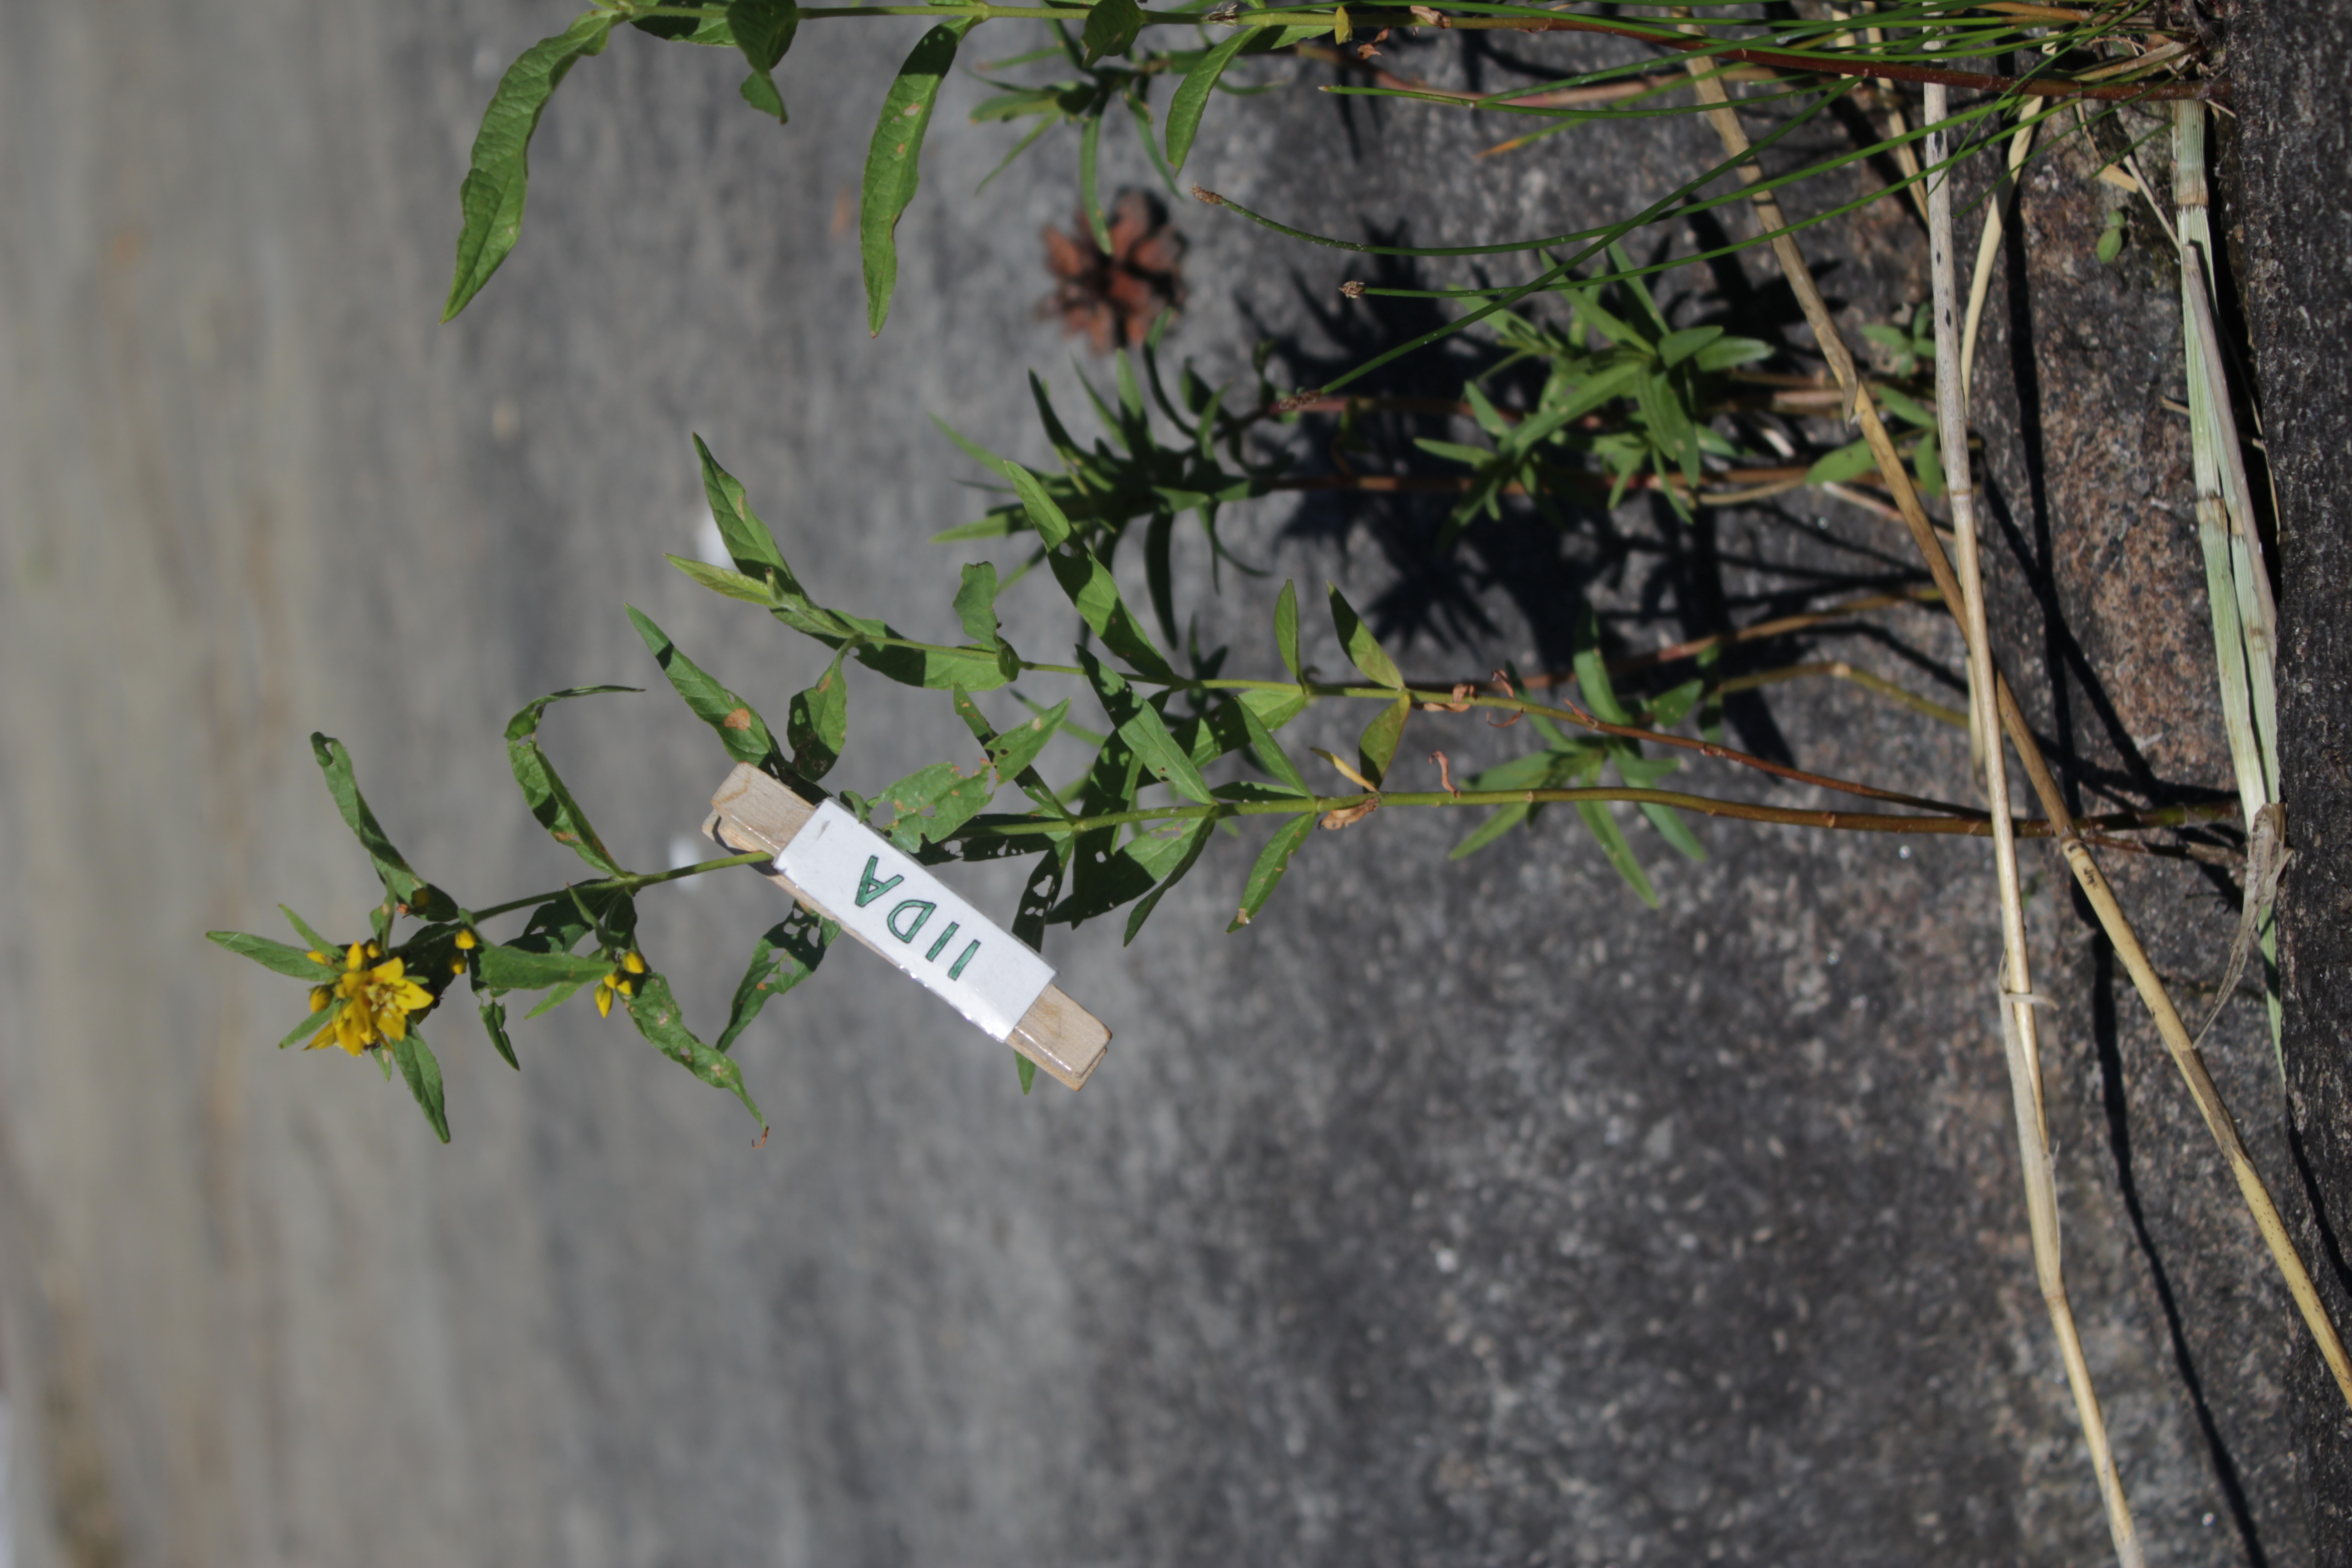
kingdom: Plantae
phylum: Tracheophyta
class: Magnoliopsida
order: Ericales
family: Primulaceae
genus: Lysimachia
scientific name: Lysimachia vulgaris
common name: Yellow loosestrife
